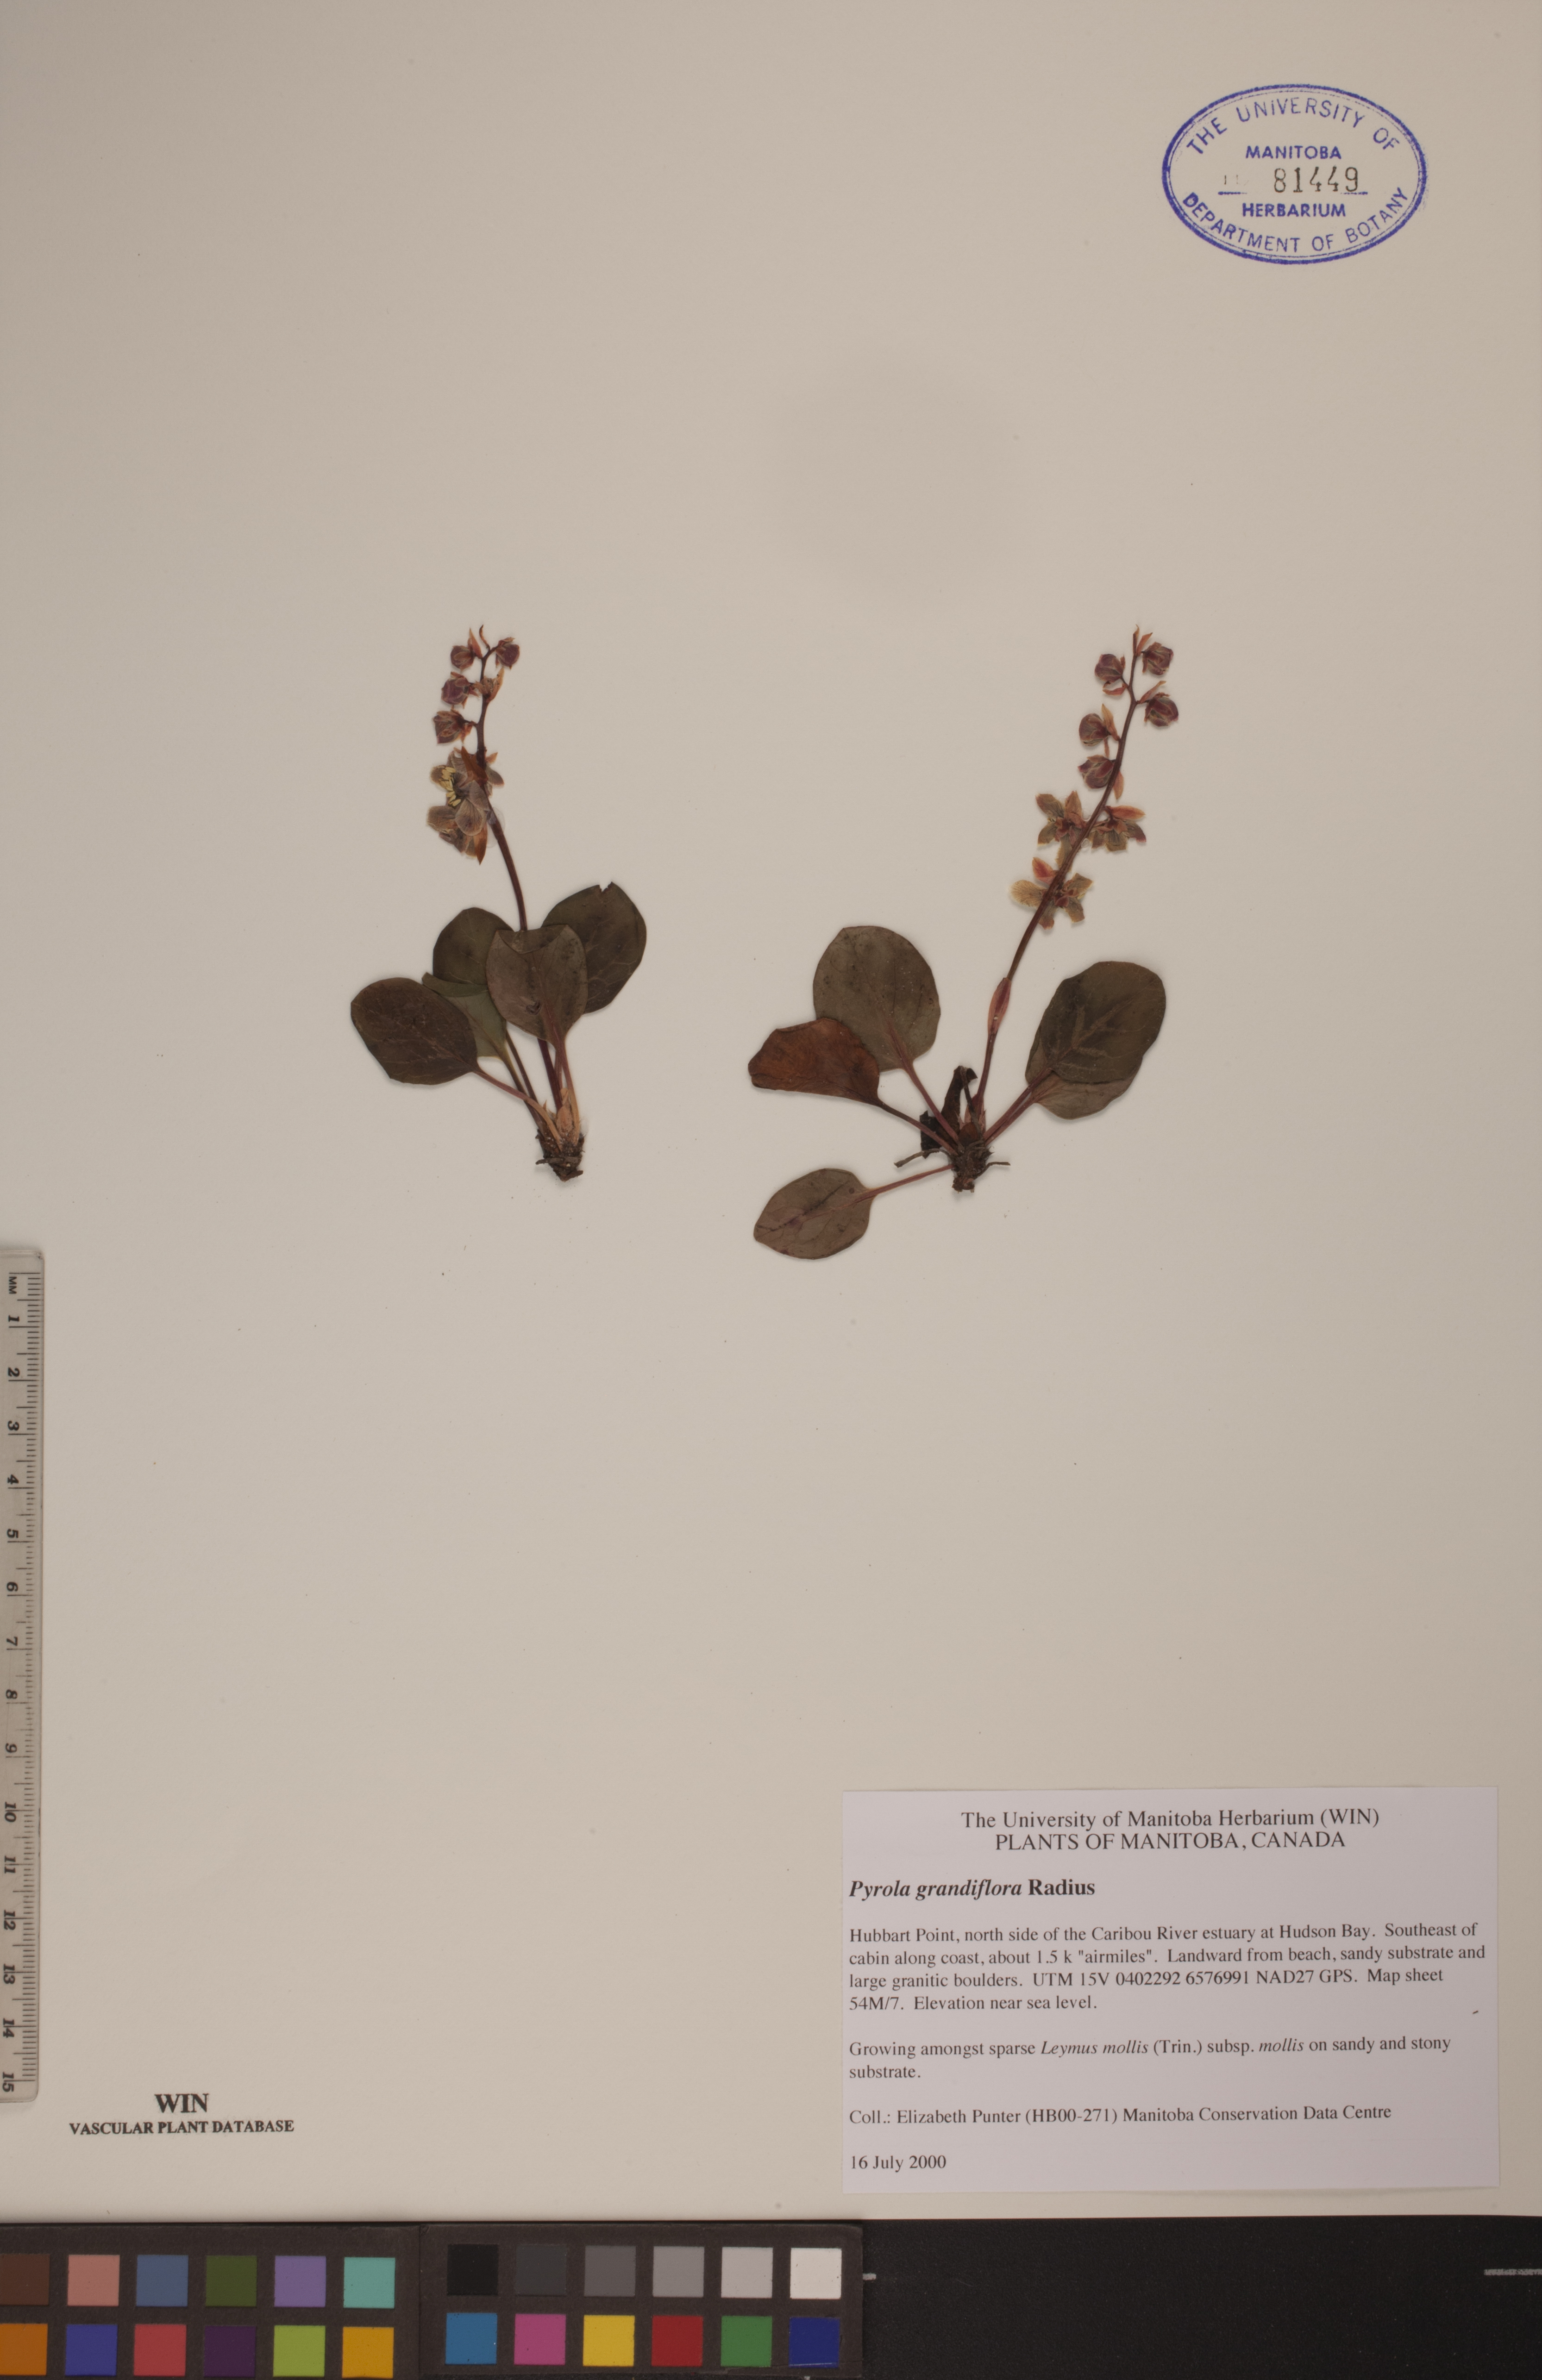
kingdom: Plantae
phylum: Tracheophyta
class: Magnoliopsida
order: Ericales
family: Ericaceae
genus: Pyrola
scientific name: Pyrola grandiflora
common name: Arctic pyrola
